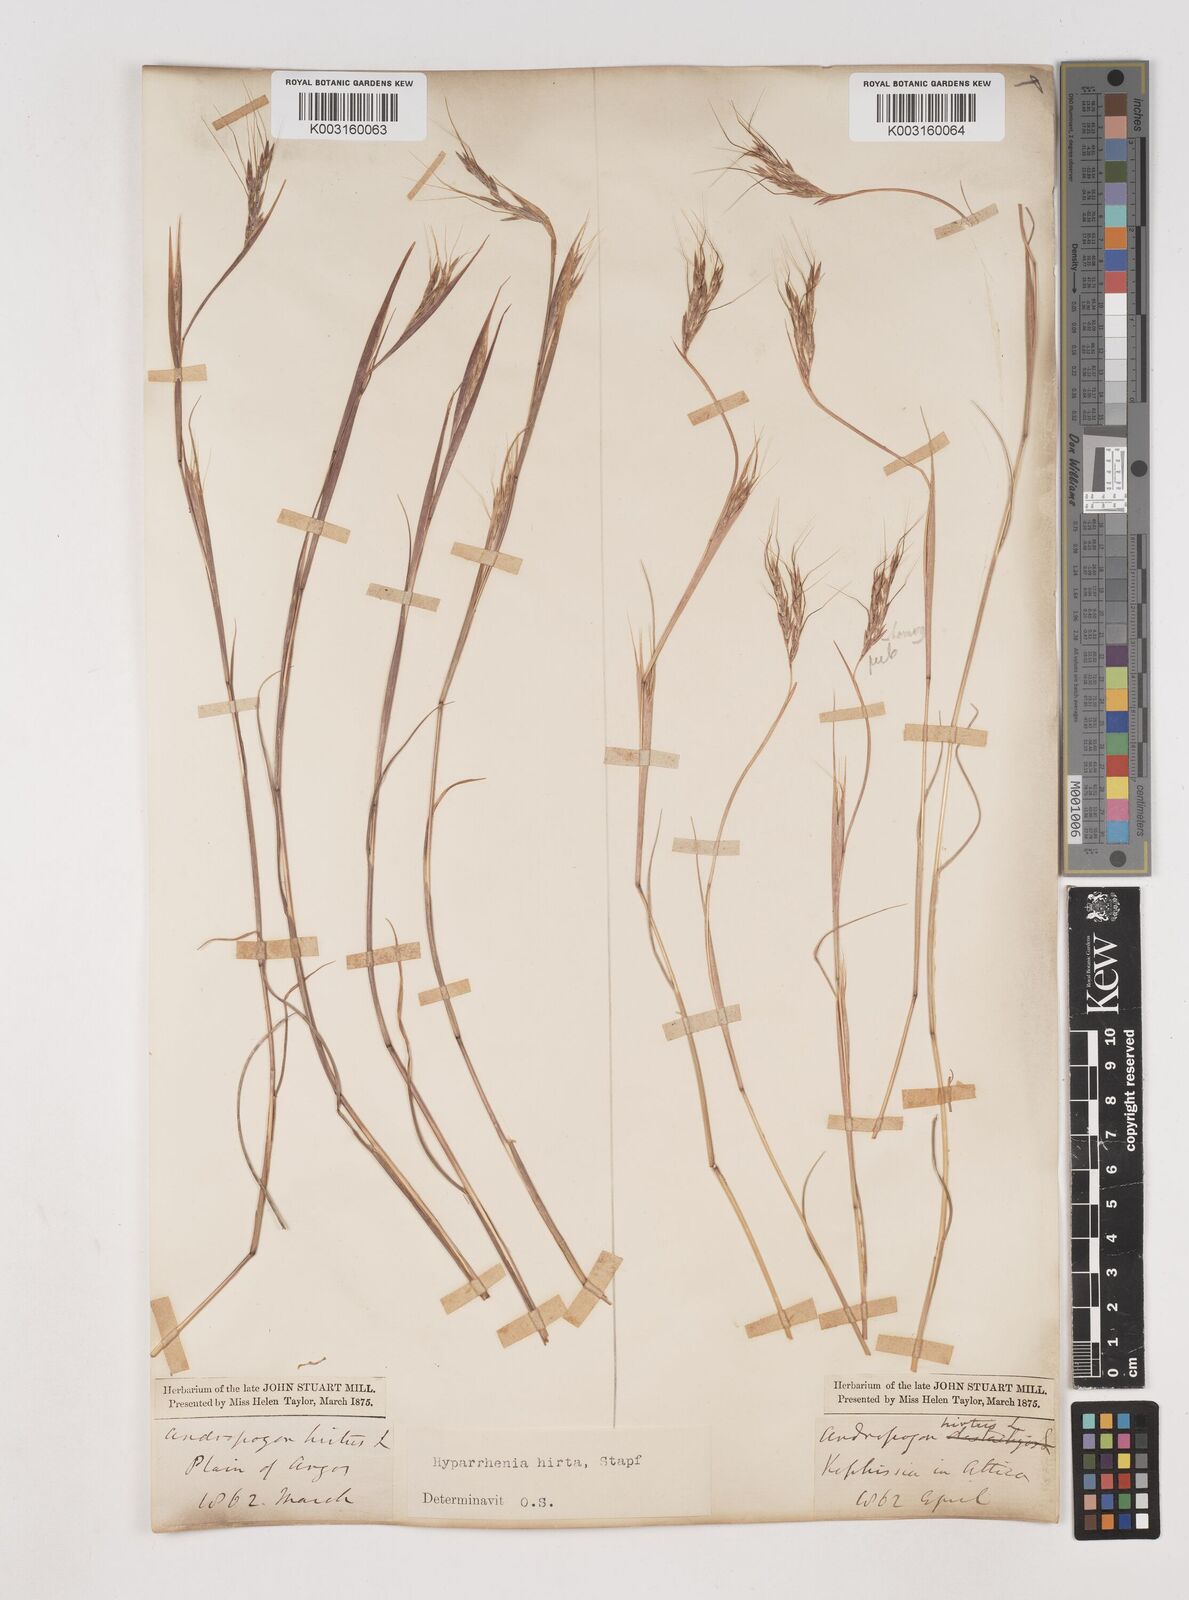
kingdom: Plantae
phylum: Tracheophyta
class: Liliopsida
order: Poales
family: Poaceae
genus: Hyparrhenia
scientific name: Hyparrhenia hirta
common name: Thatching grass
